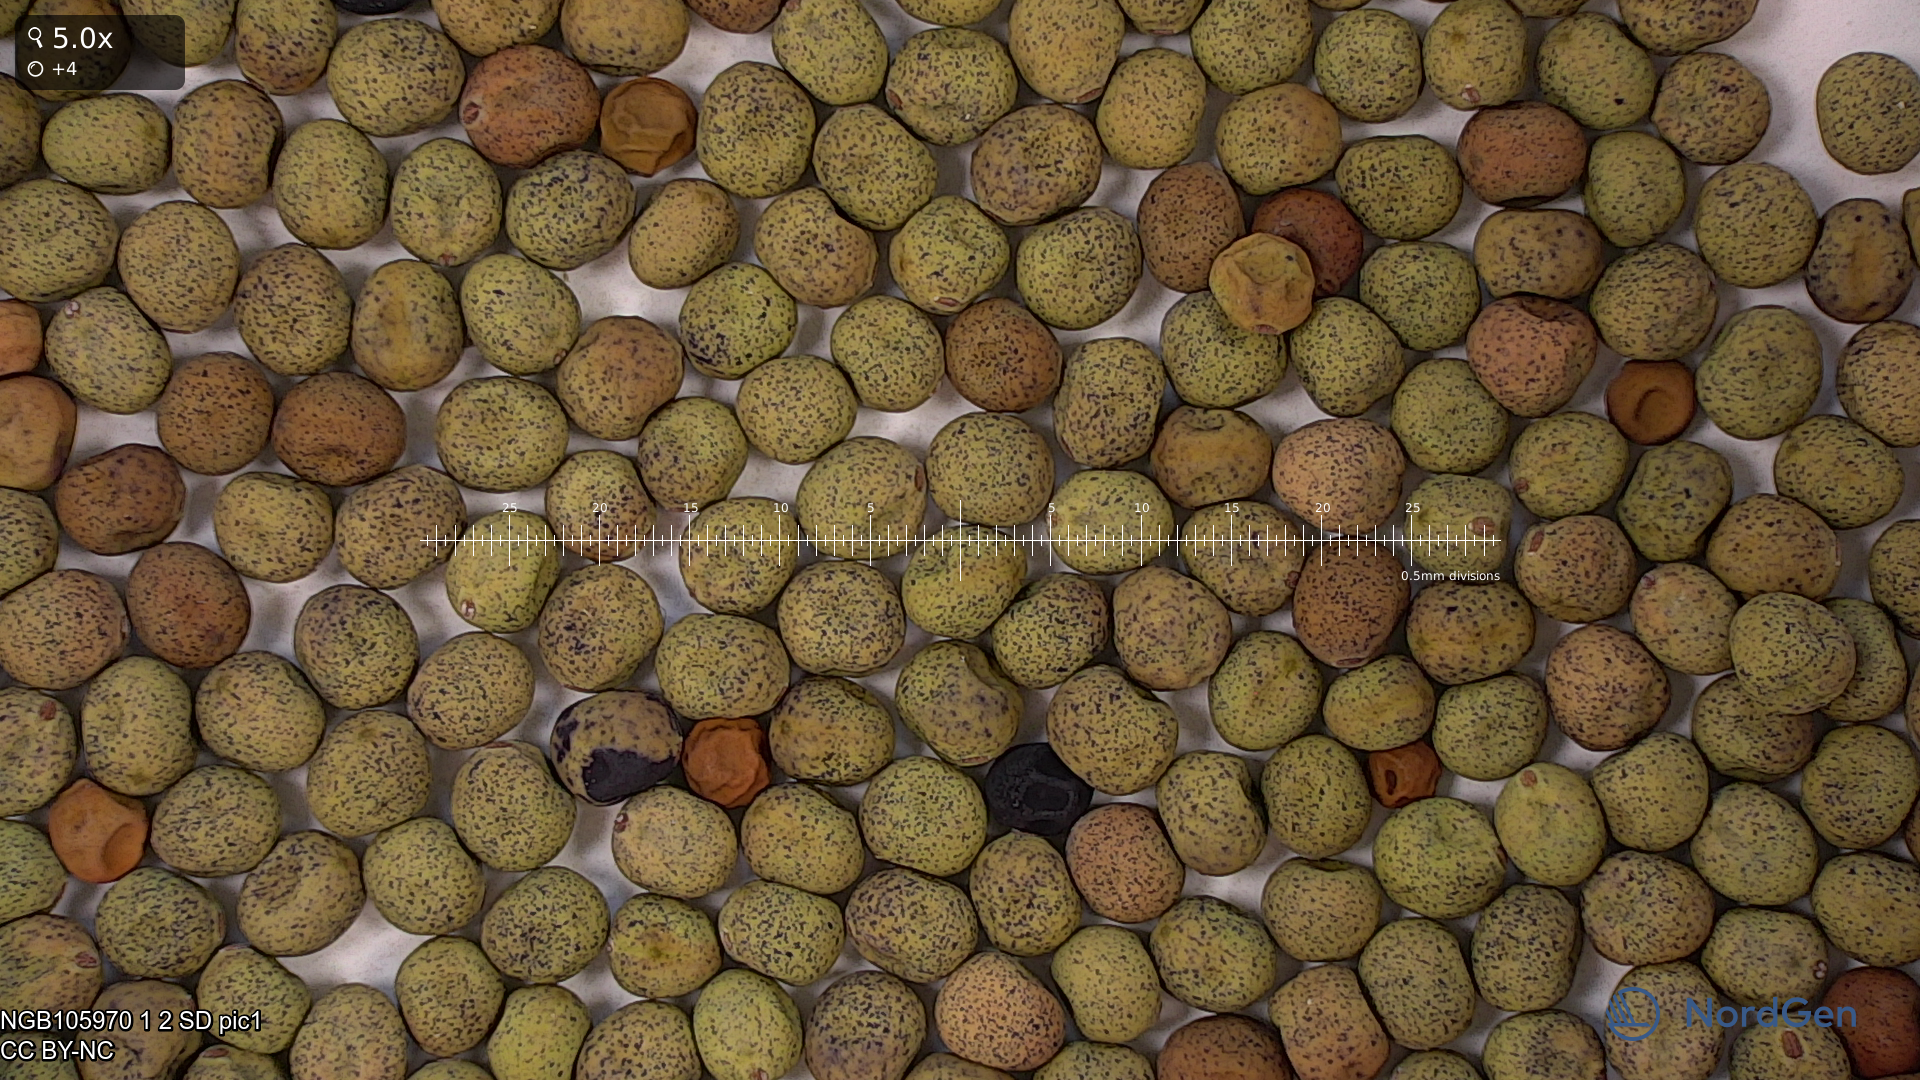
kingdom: Plantae
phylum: Tracheophyta
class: Magnoliopsida
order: Fabales
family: Fabaceae
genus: Lathyrus
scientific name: Lathyrus oleraceus
